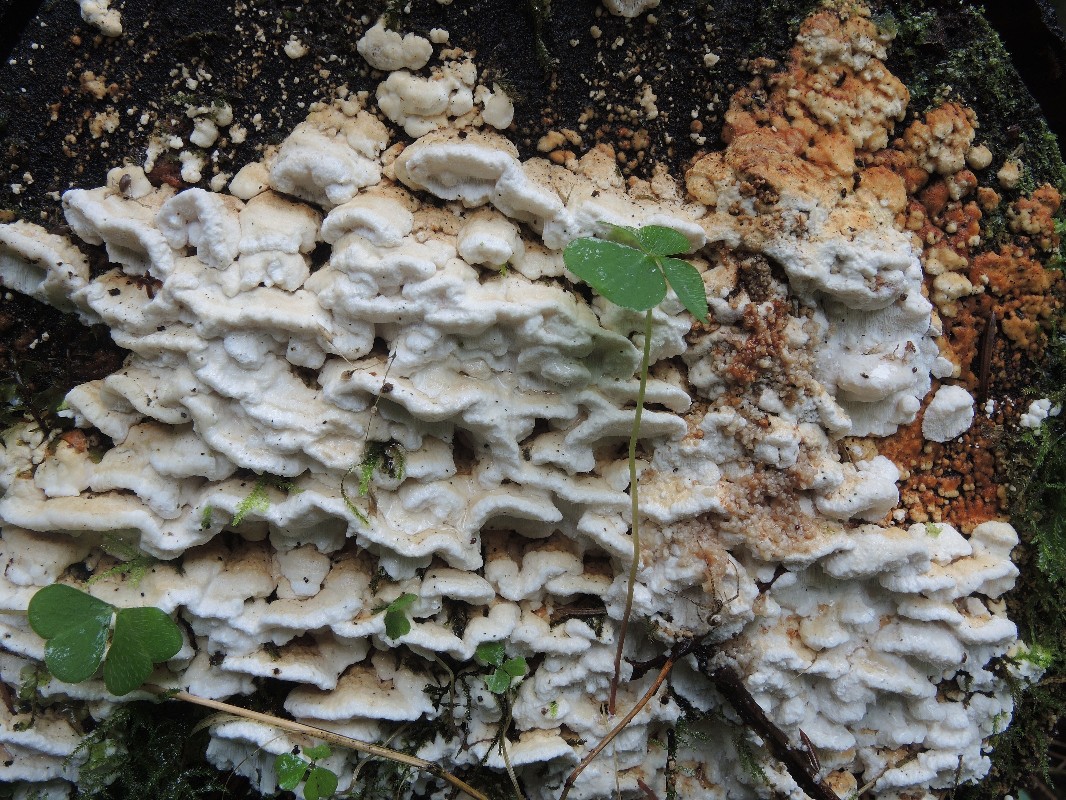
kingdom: Fungi
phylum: Basidiomycota
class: Agaricomycetes
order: Polyporales
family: Fomitopsidaceae
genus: Neoantrodia
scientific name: Neoantrodia serialis
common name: række-sejporesvamp
